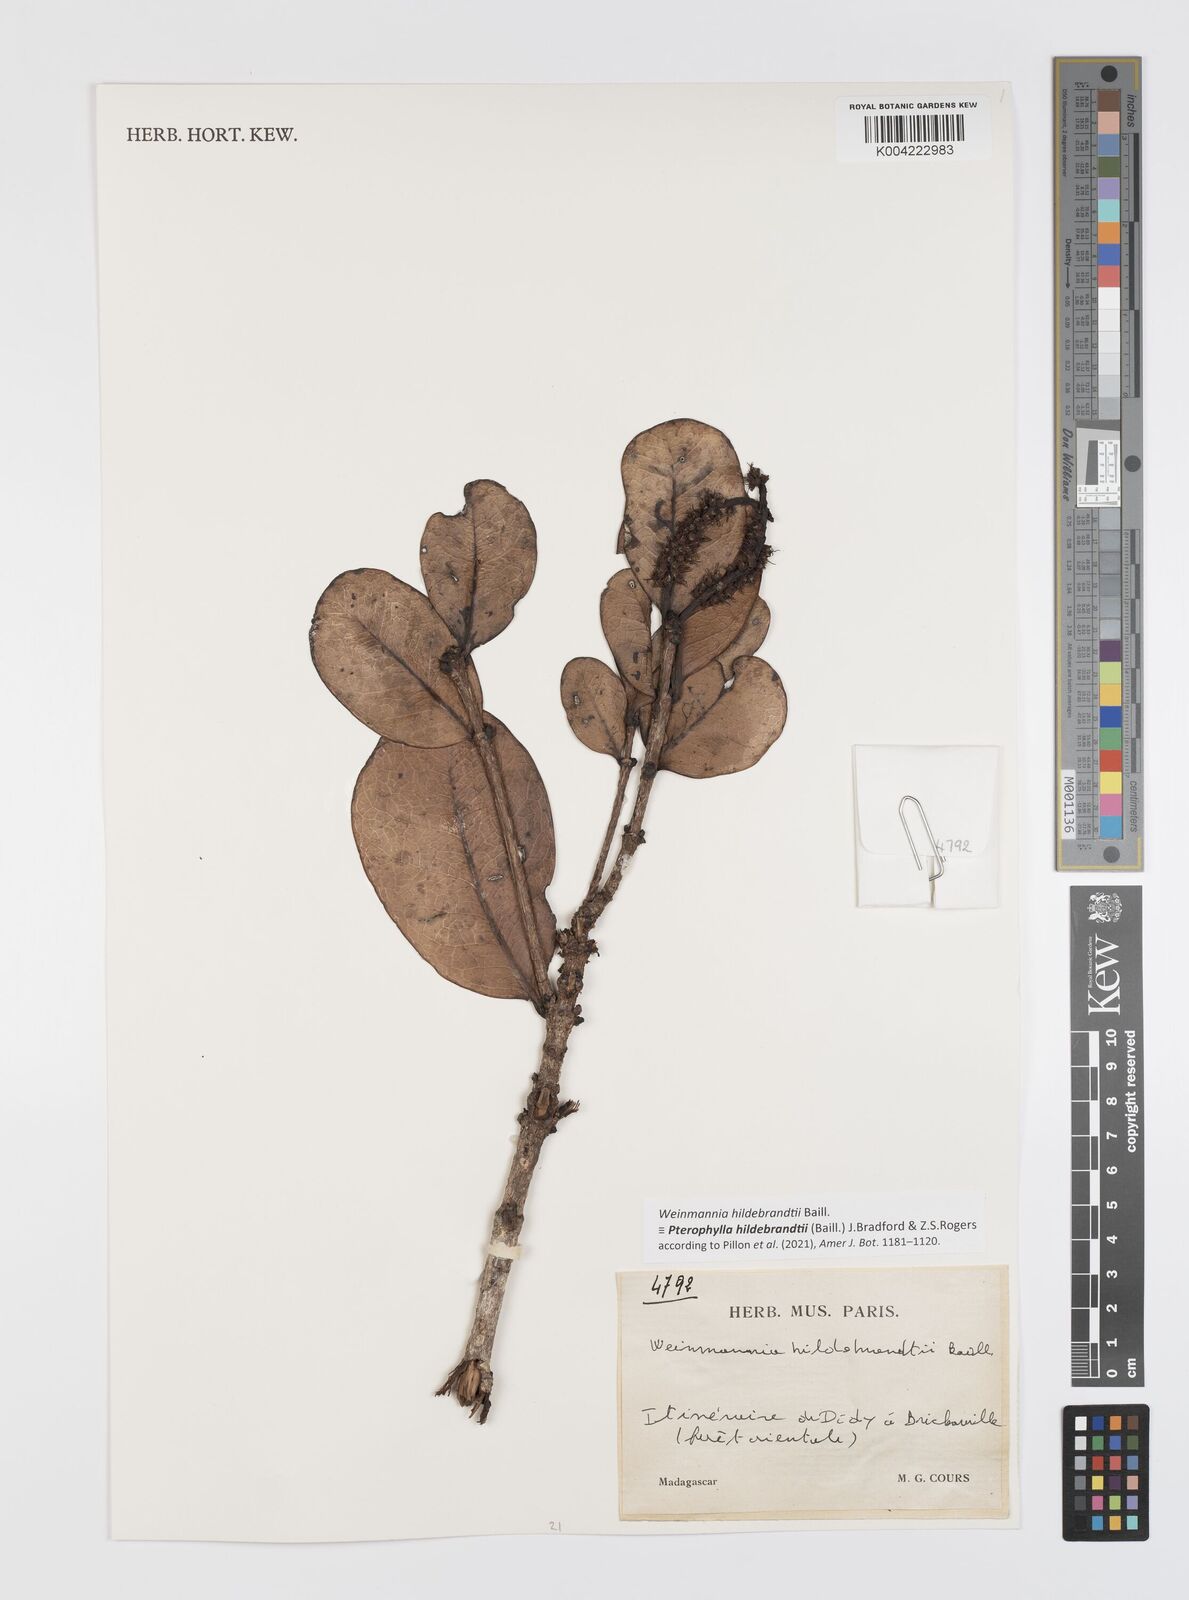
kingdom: Plantae
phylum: Tracheophyta
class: Magnoliopsida
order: Oxalidales
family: Cunoniaceae
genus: Pterophylla
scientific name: Pterophylla hildebrandtii
